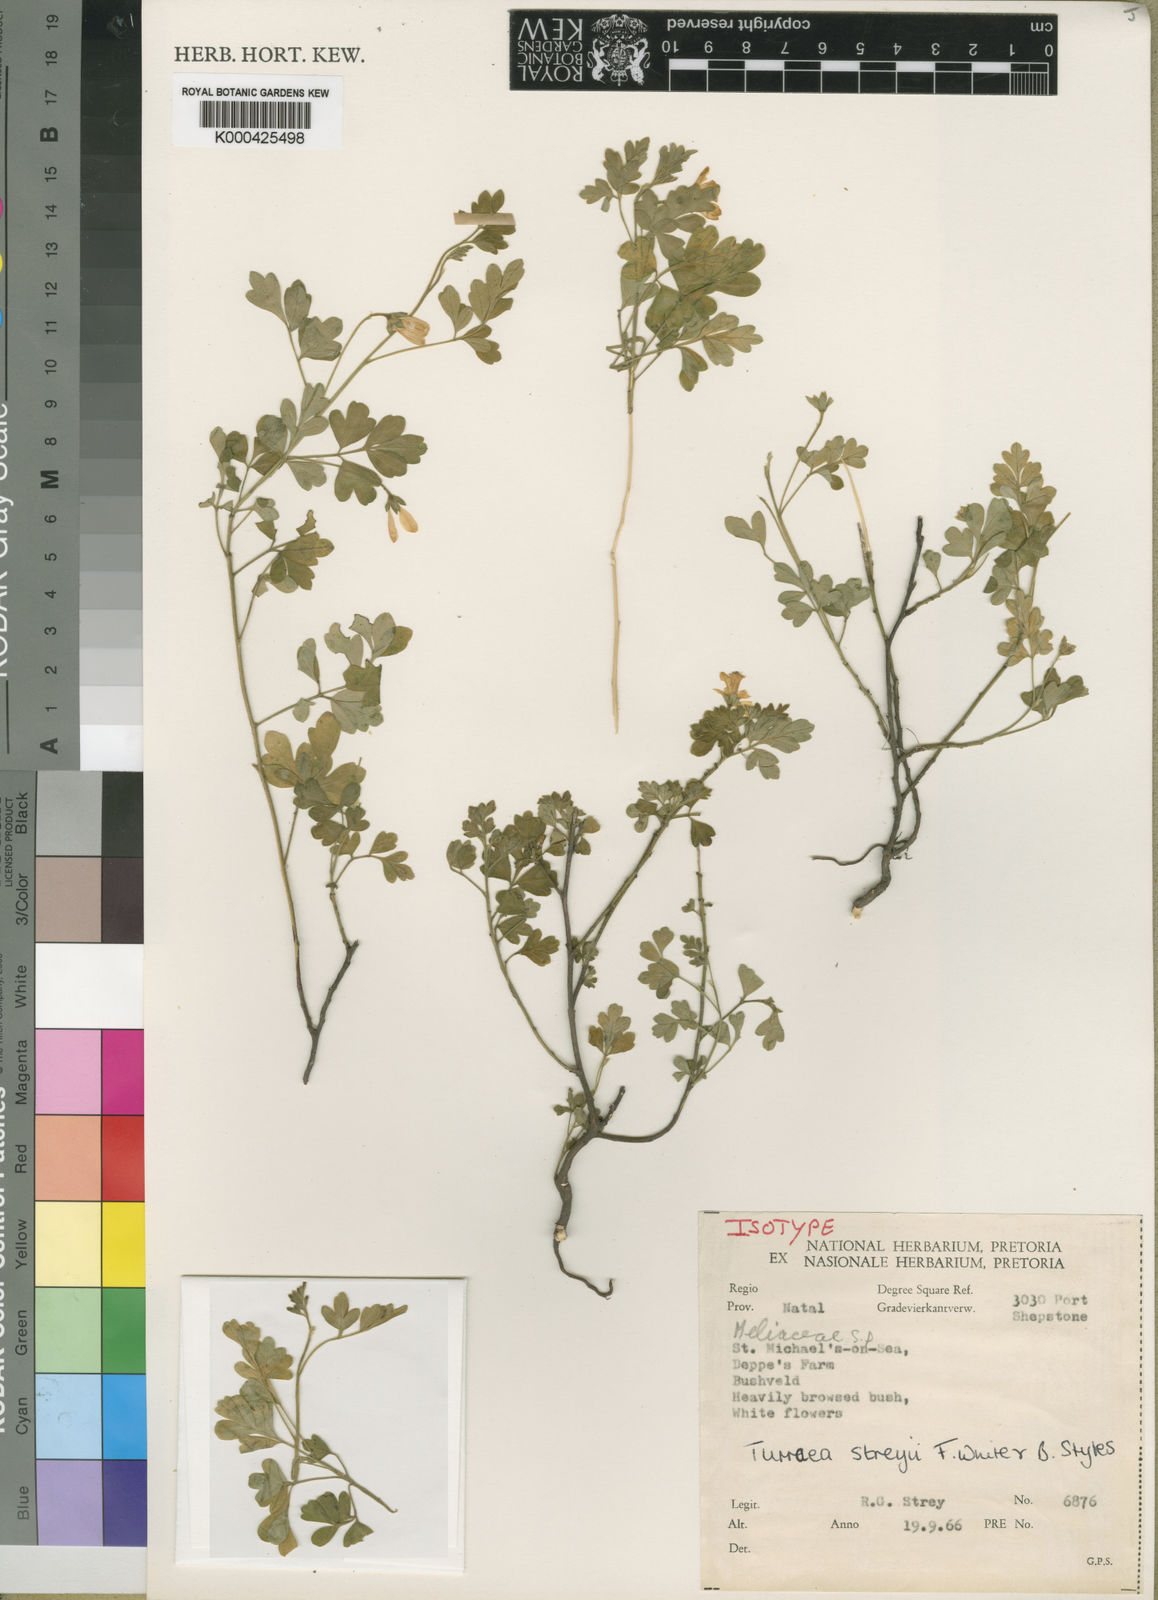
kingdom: Plantae
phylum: Tracheophyta
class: Magnoliopsida
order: Sapindales
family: Meliaceae
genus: Turraea
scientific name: Turraea streyi
